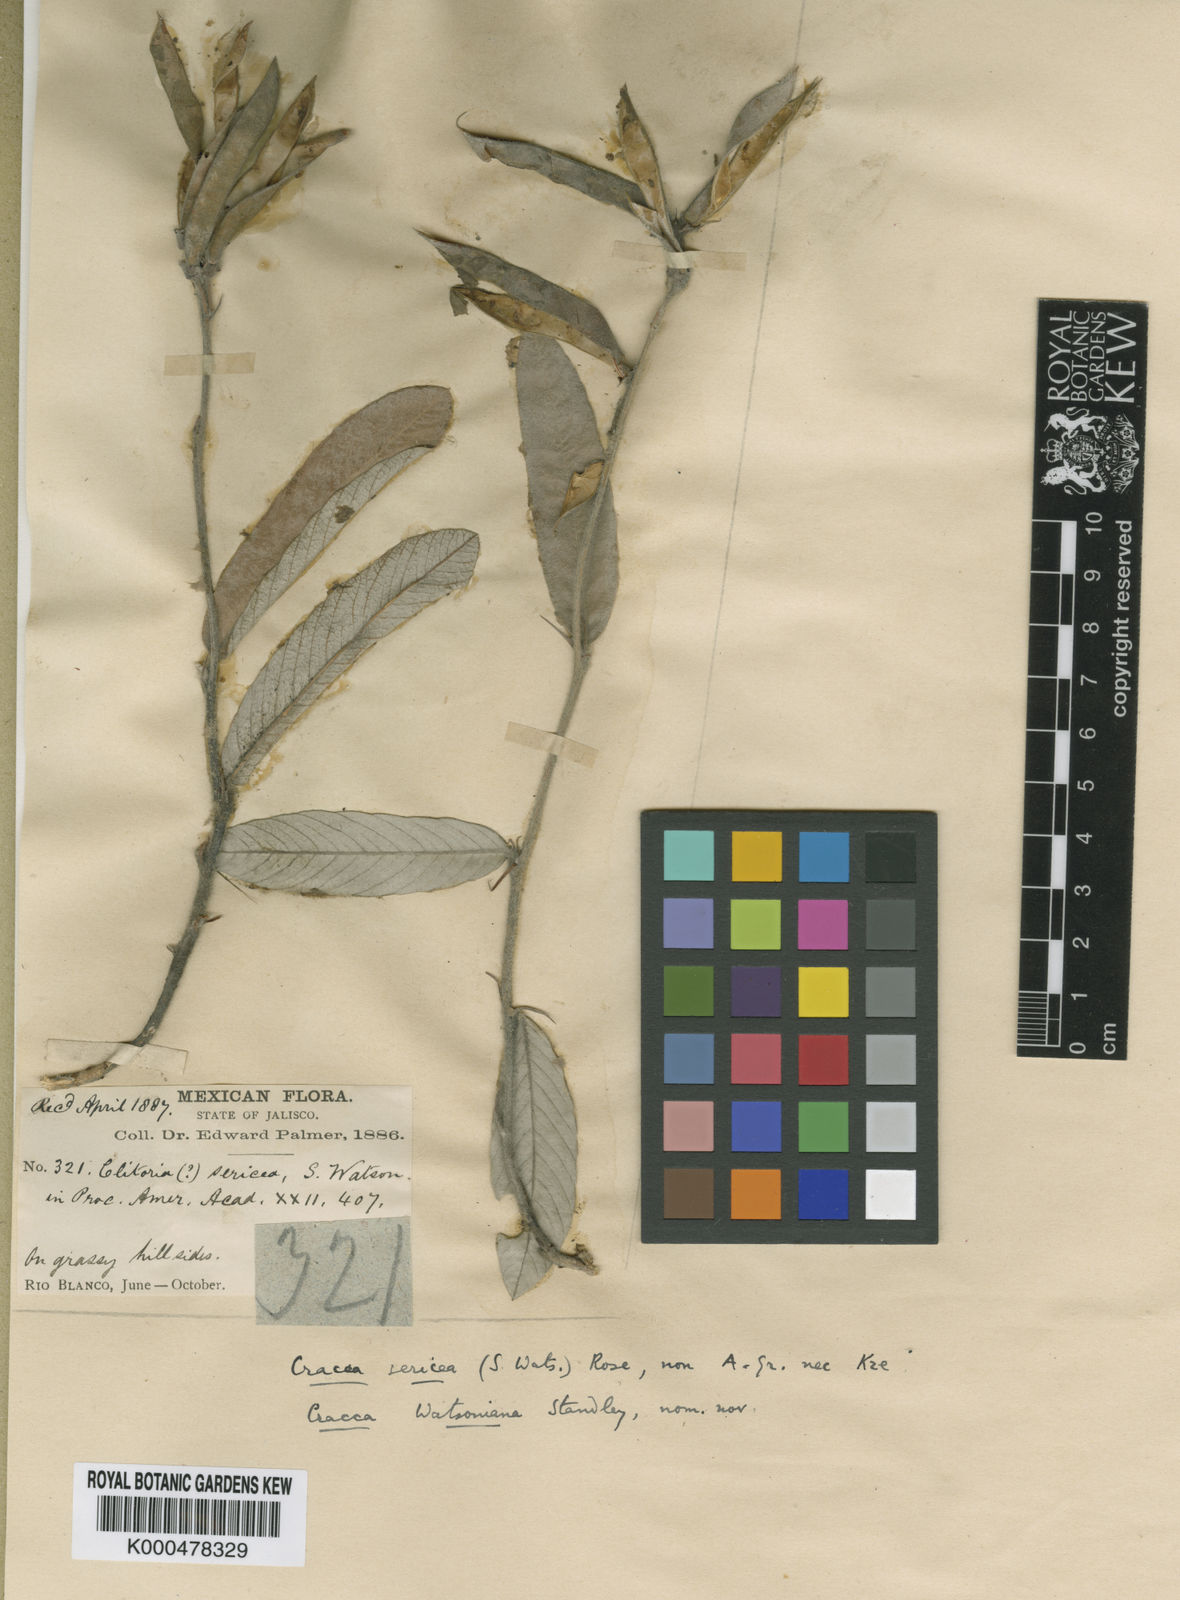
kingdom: Plantae
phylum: Tracheophyta
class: Magnoliopsida
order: Fabales
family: Fabaceae
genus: Tephrosia
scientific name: Tephrosia watsoniana
